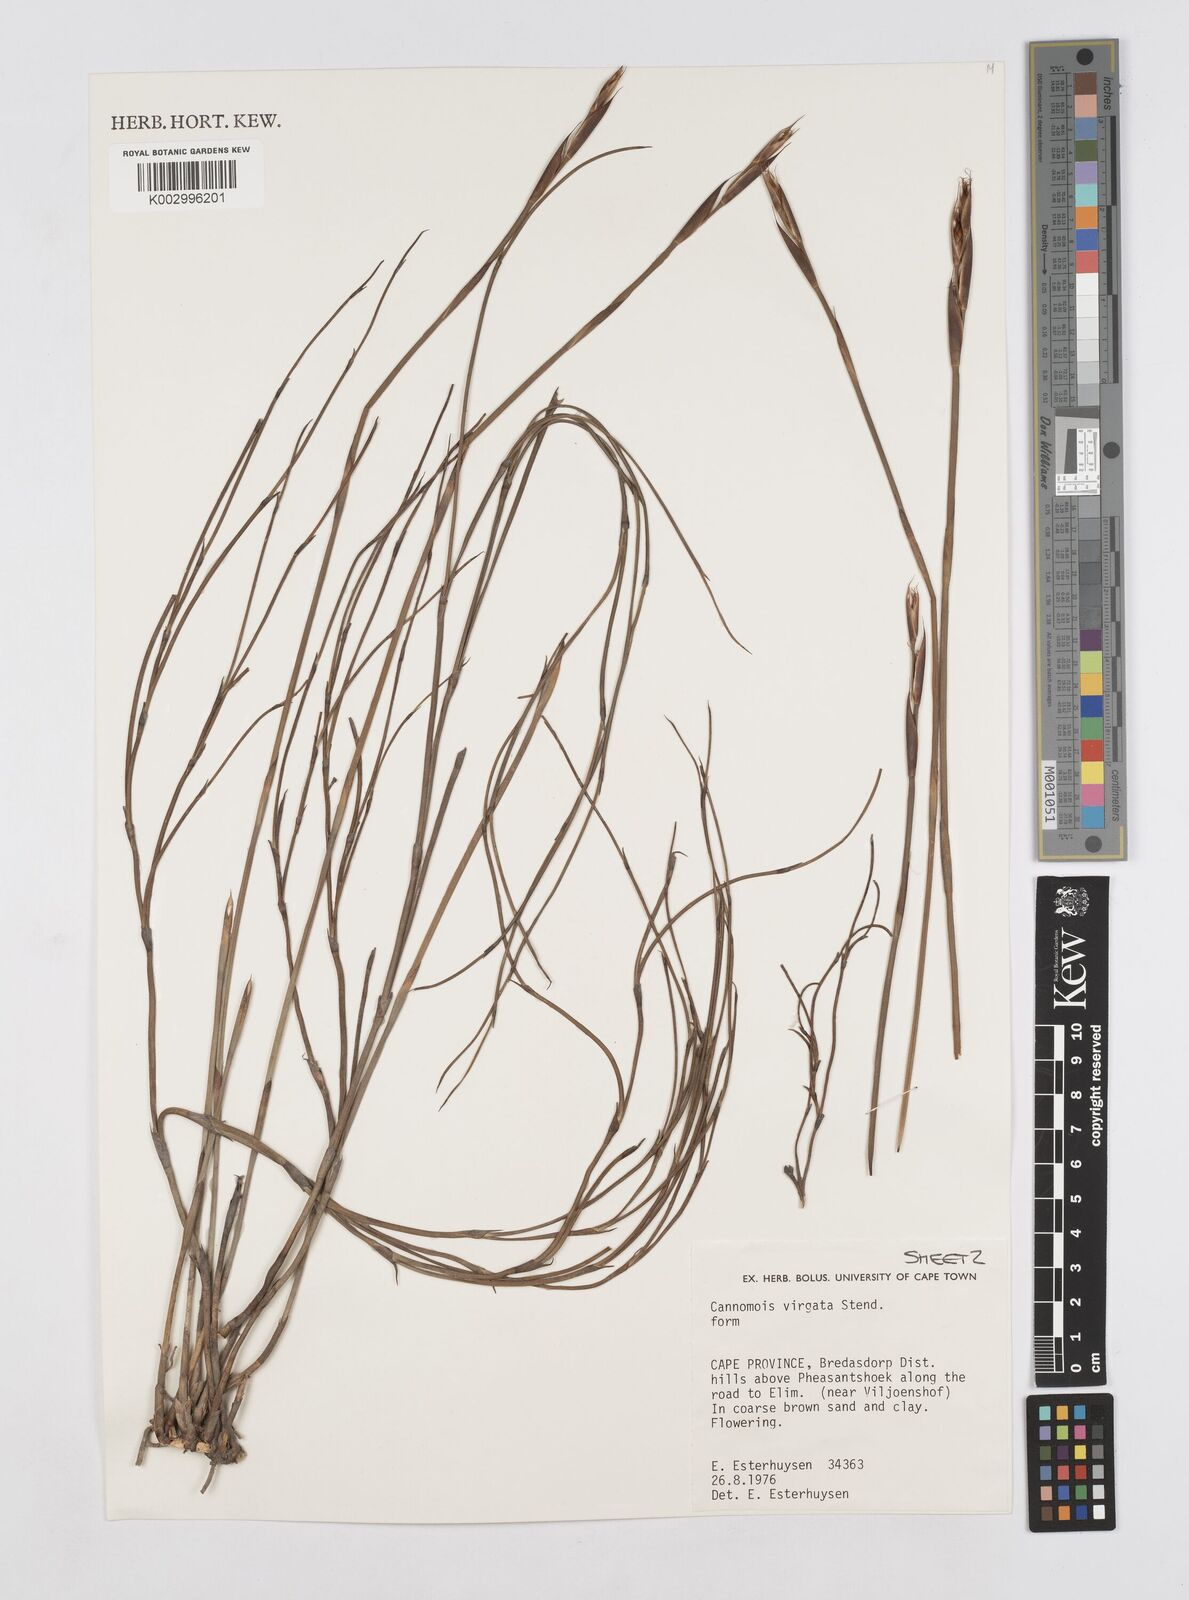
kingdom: Plantae
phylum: Tracheophyta
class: Liliopsida
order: Poales
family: Restionaceae
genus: Cannomois
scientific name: Cannomois virgata
